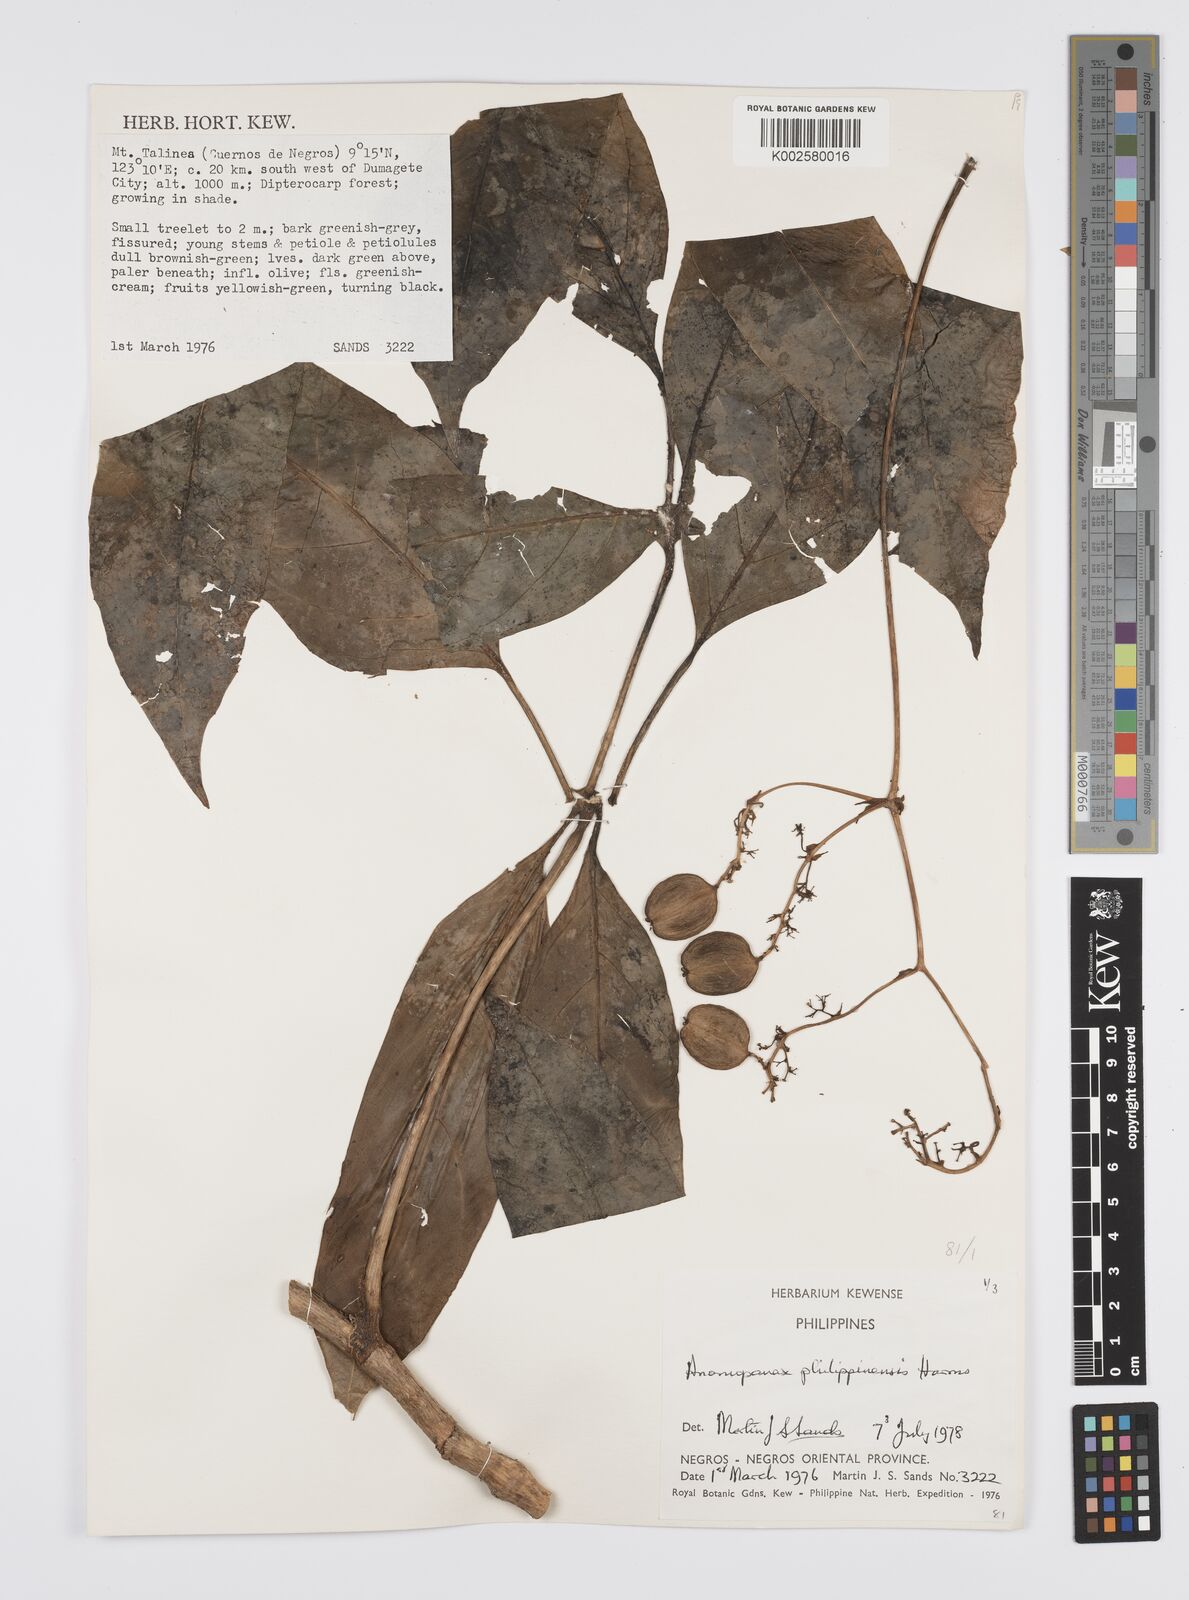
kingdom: Plantae
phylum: Tracheophyta
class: Magnoliopsida
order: Apiales
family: Apiaceae
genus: Mackinlaya
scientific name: Mackinlaya
